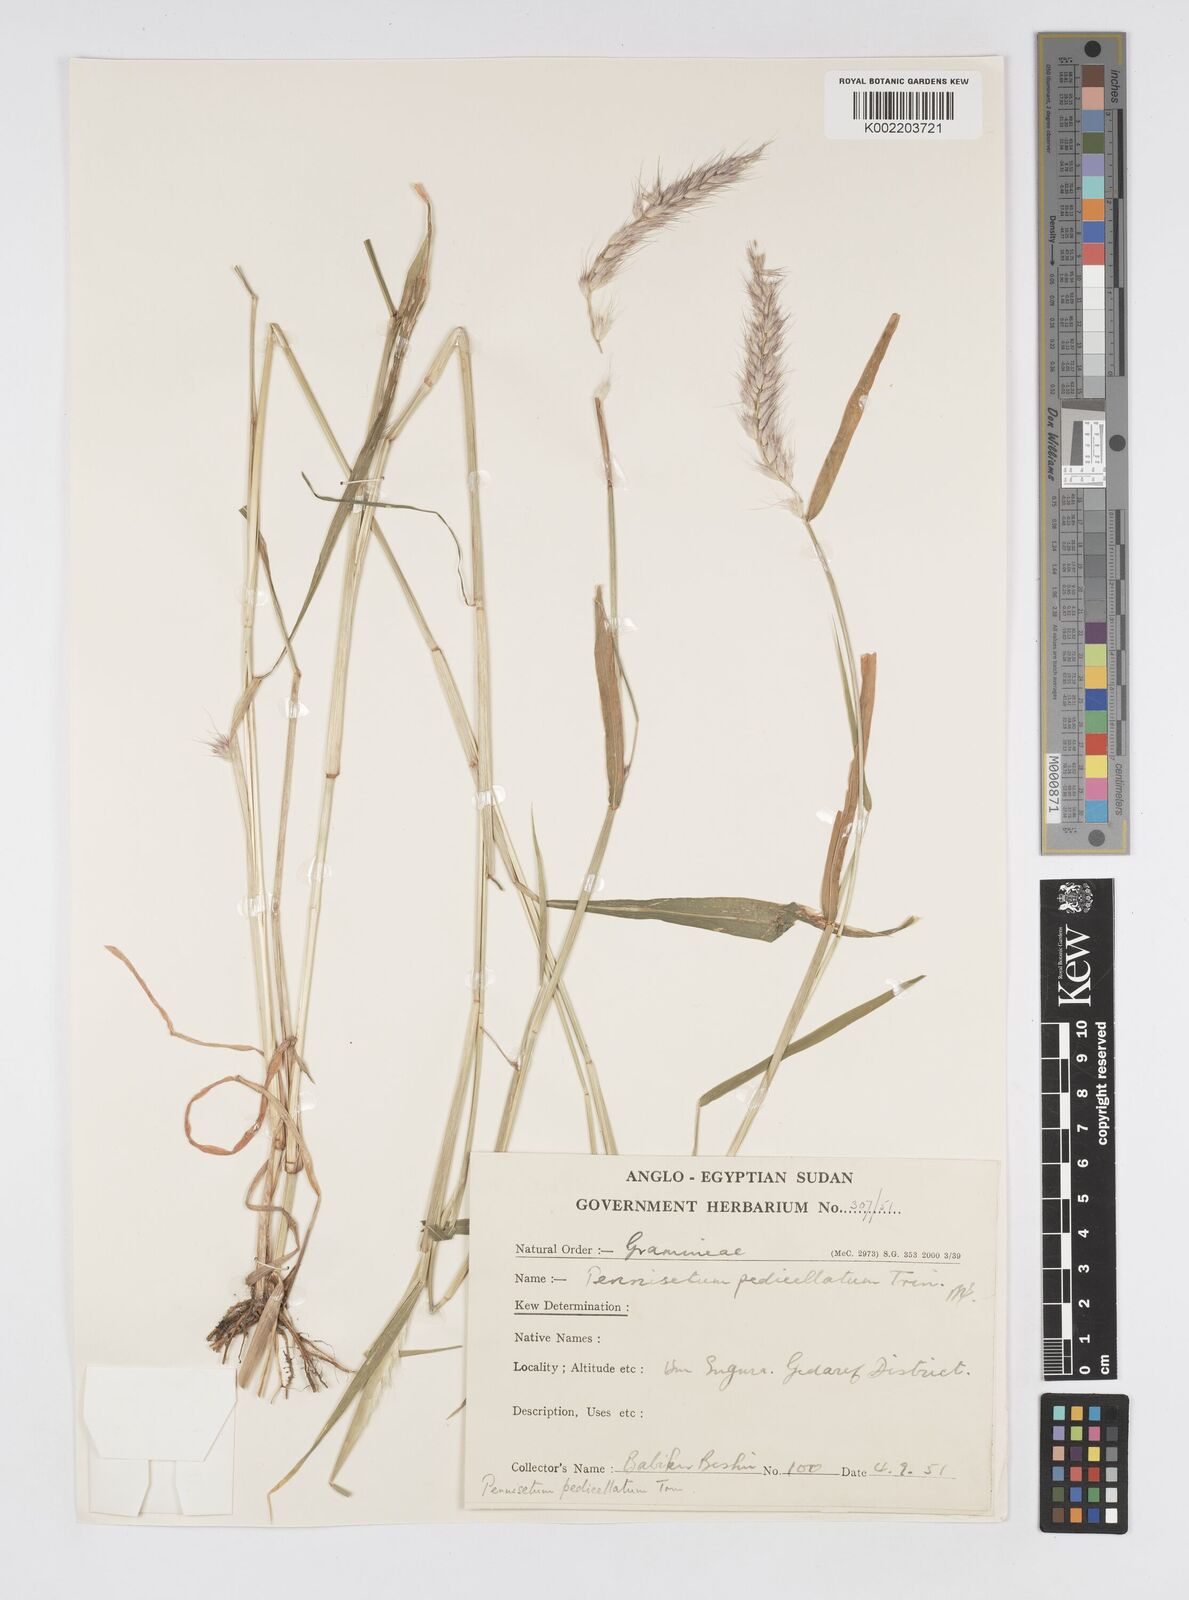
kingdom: Plantae
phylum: Tracheophyta
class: Liliopsida
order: Poales
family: Poaceae
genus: Cenchrus
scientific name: Cenchrus pedicellatus
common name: Hairy fountain grass
